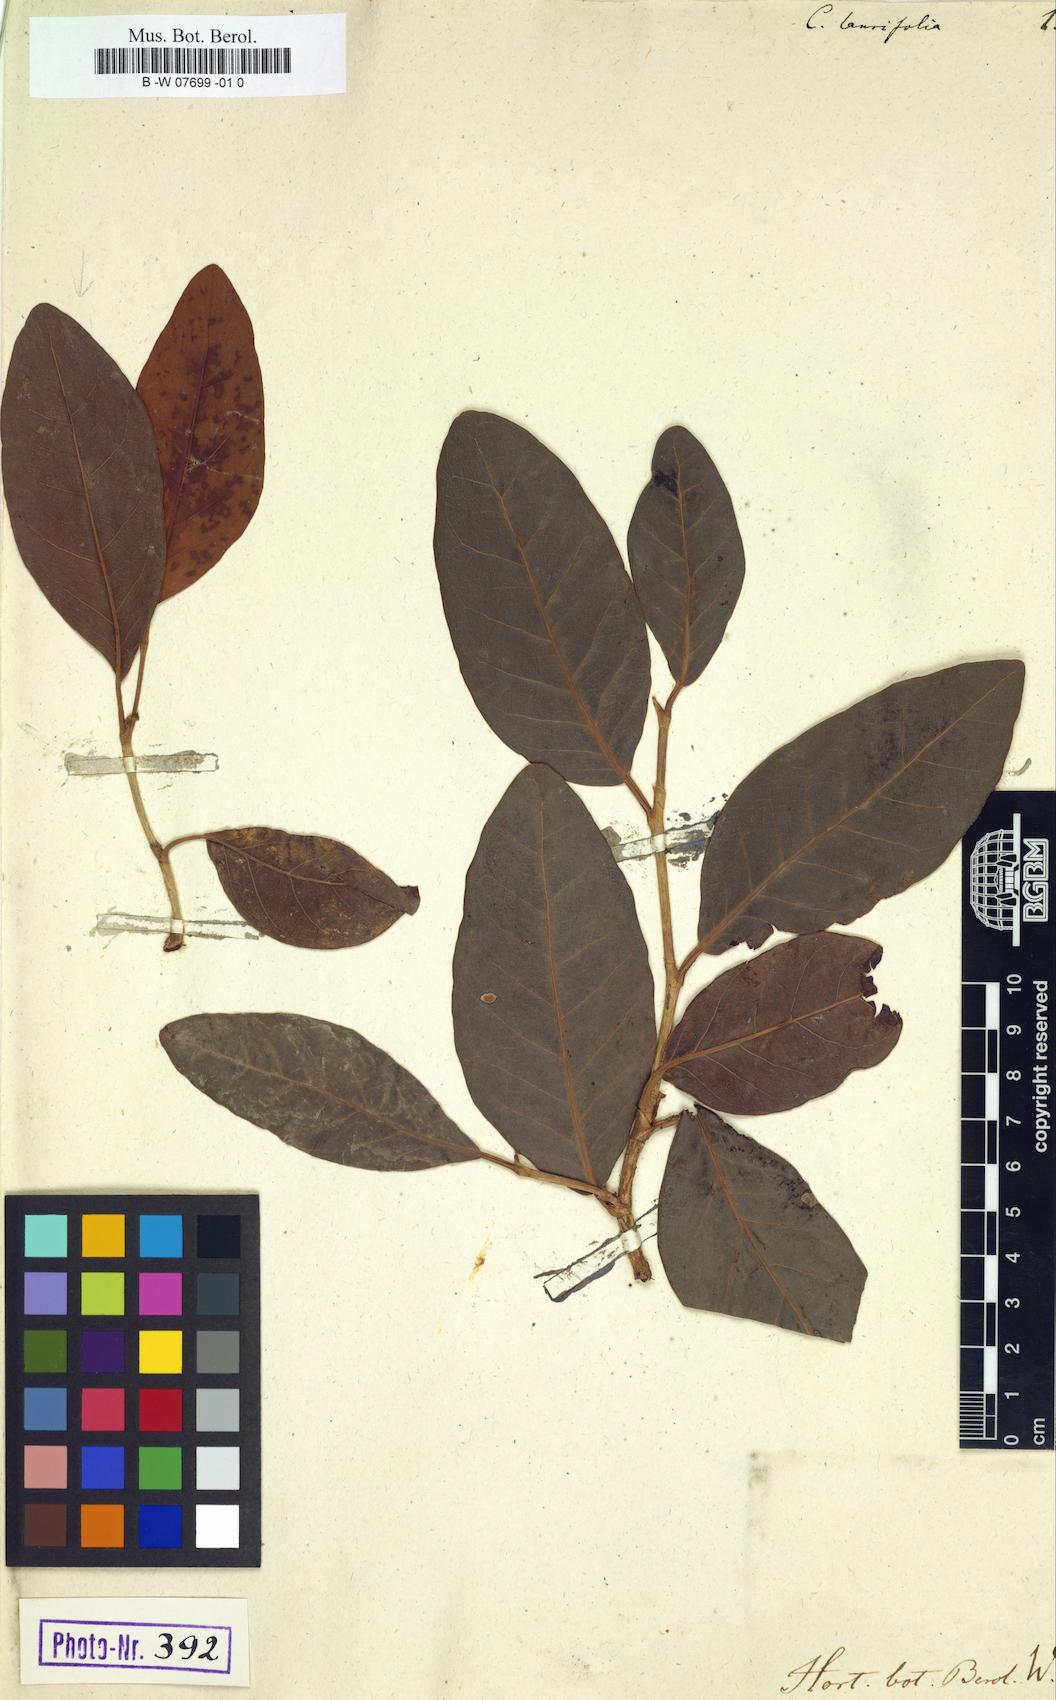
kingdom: Plantae
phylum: Tracheophyta
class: Magnoliopsida
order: Caryophyllales
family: Polygonaceae
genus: Coccoloba
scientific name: Coccoloba diversifolia
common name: Pigeon-plum
